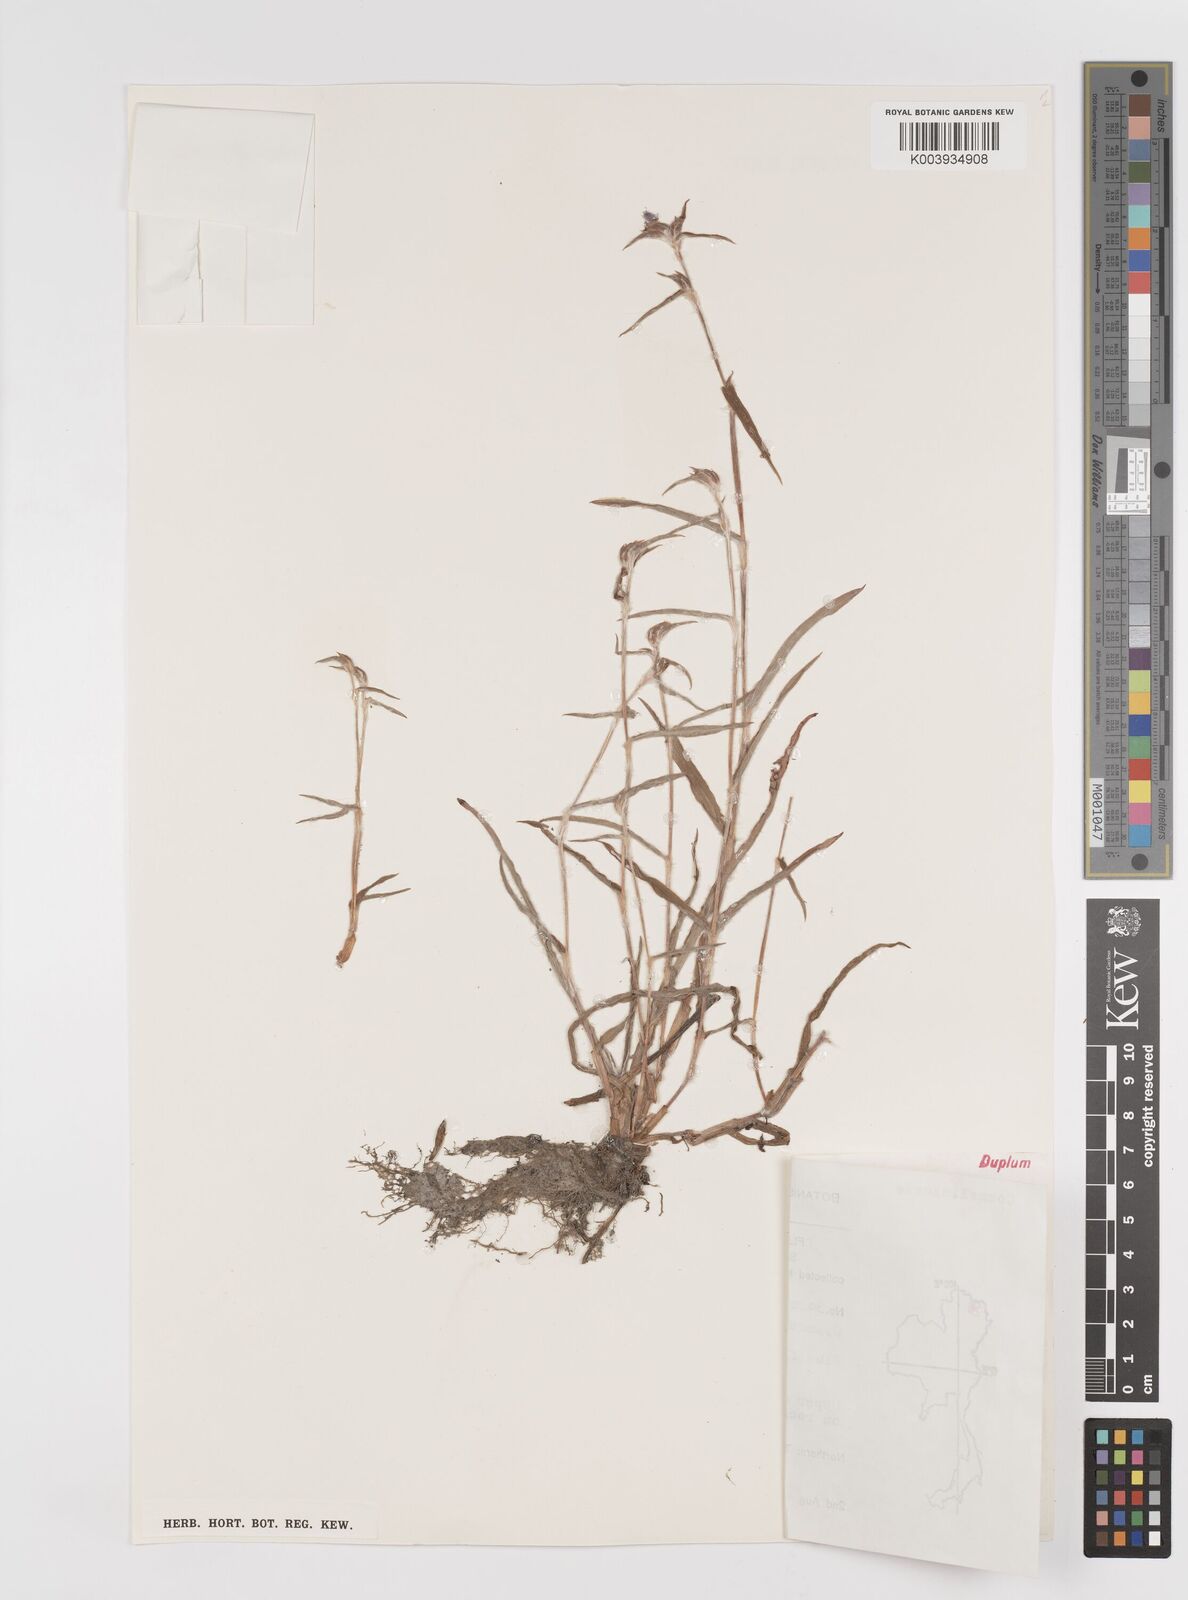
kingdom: Plantae
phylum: Tracheophyta
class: Liliopsida
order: Commelinales
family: Commelinaceae
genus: Cyanotis
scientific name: Cyanotis fasciculata
